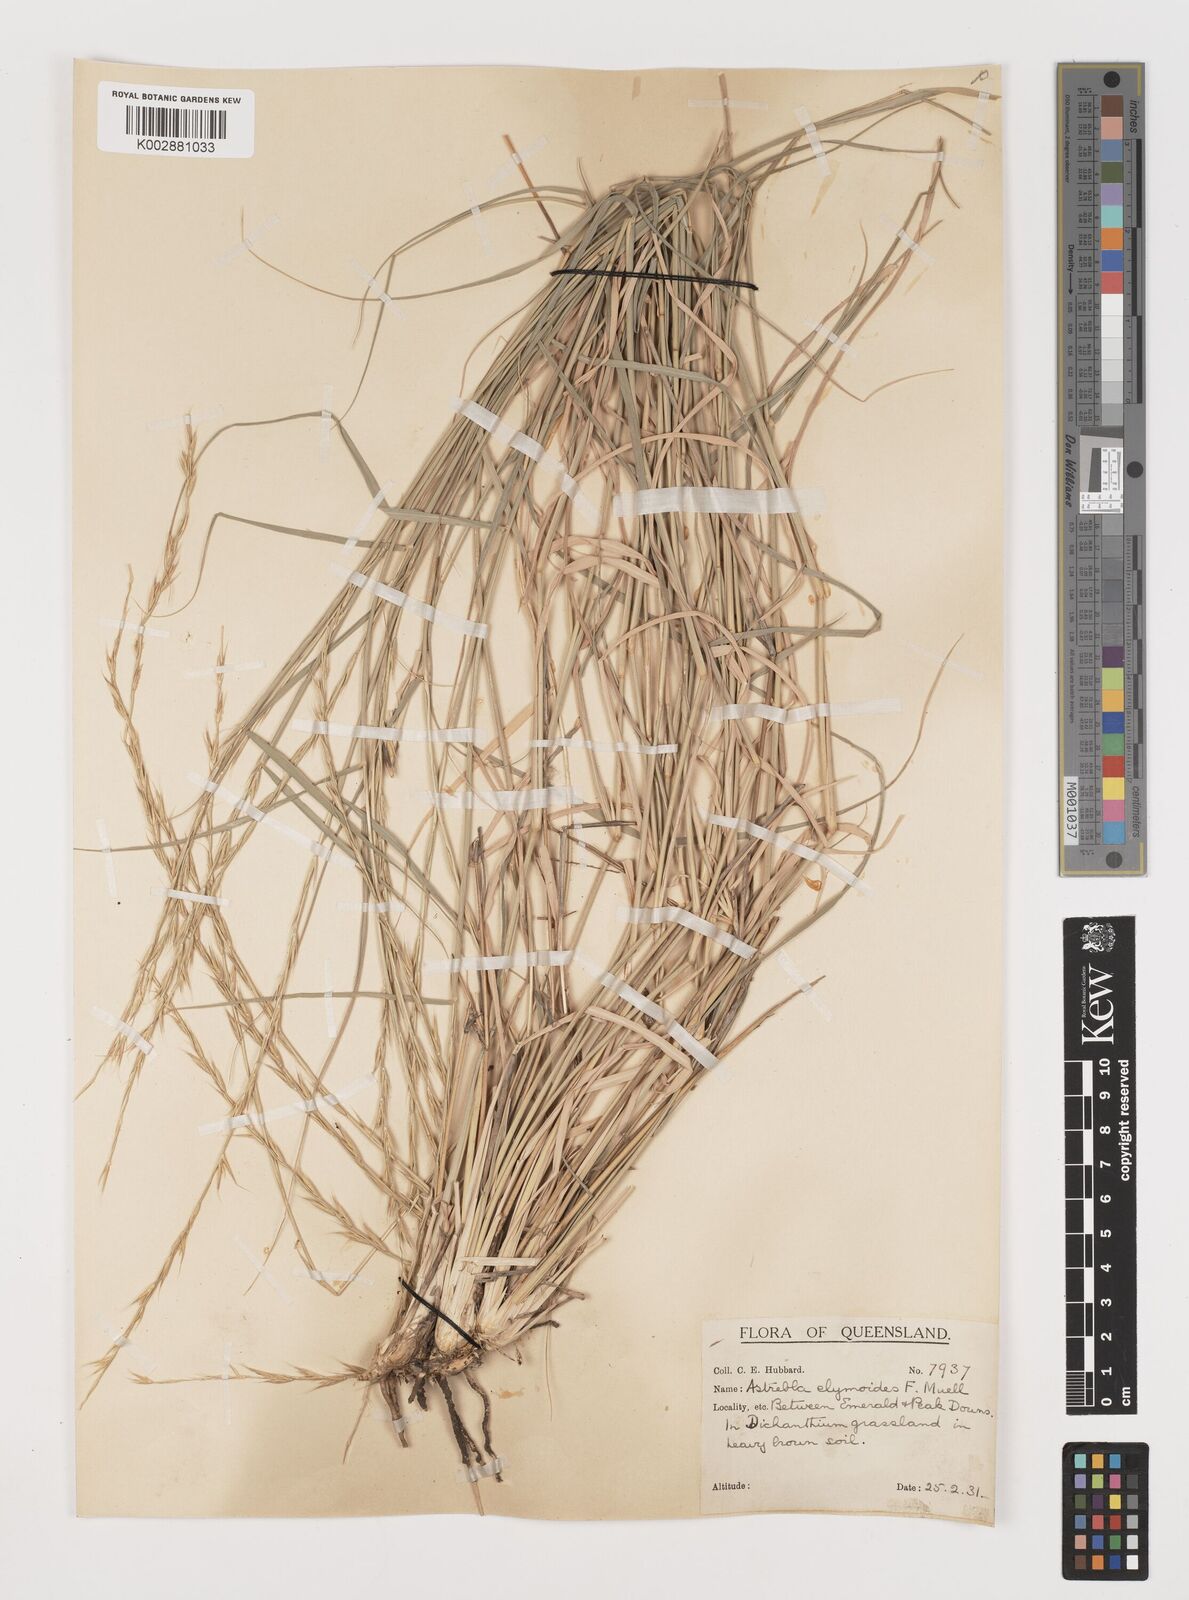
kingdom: Plantae
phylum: Tracheophyta
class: Liliopsida
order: Poales
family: Poaceae
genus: Astrebla
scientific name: Astrebla elymoides
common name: Hoop mitchell grass
